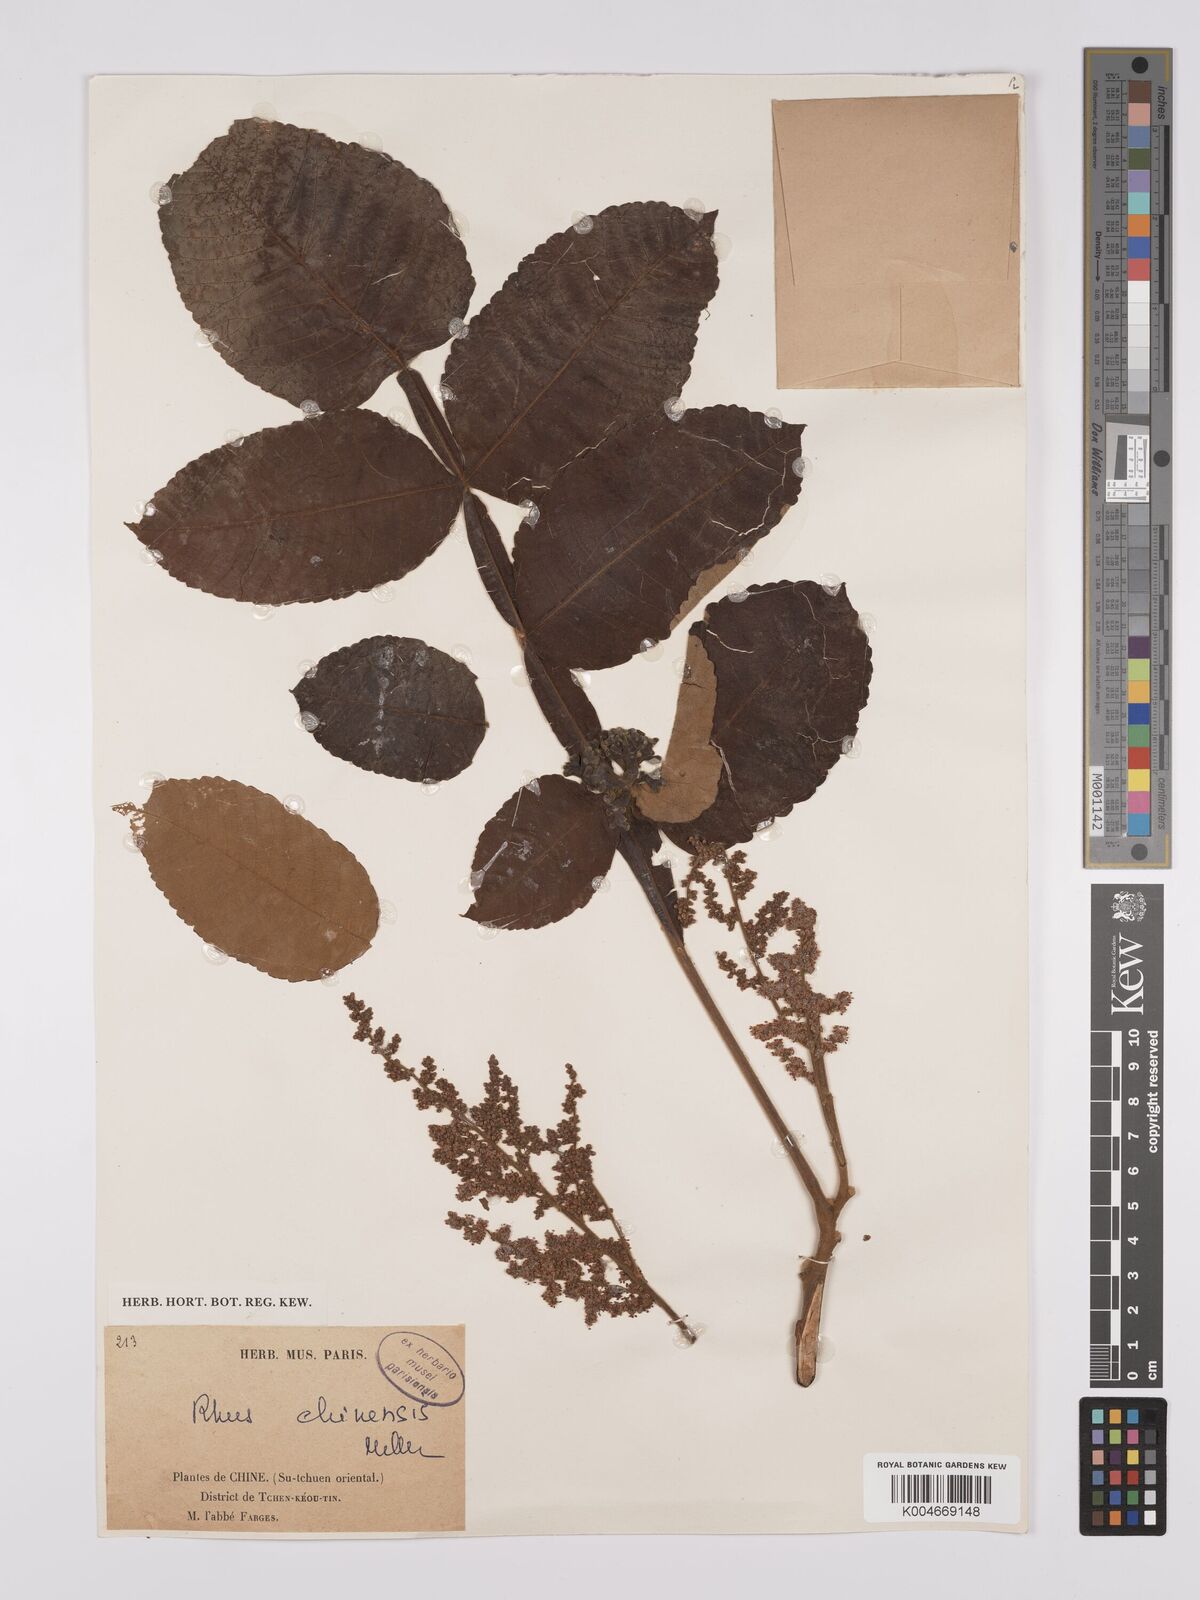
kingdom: Plantae
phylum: Tracheophyta
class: Magnoliopsida
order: Sapindales
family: Anacardiaceae
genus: Rhus
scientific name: Rhus chinensis
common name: Chinese gall
